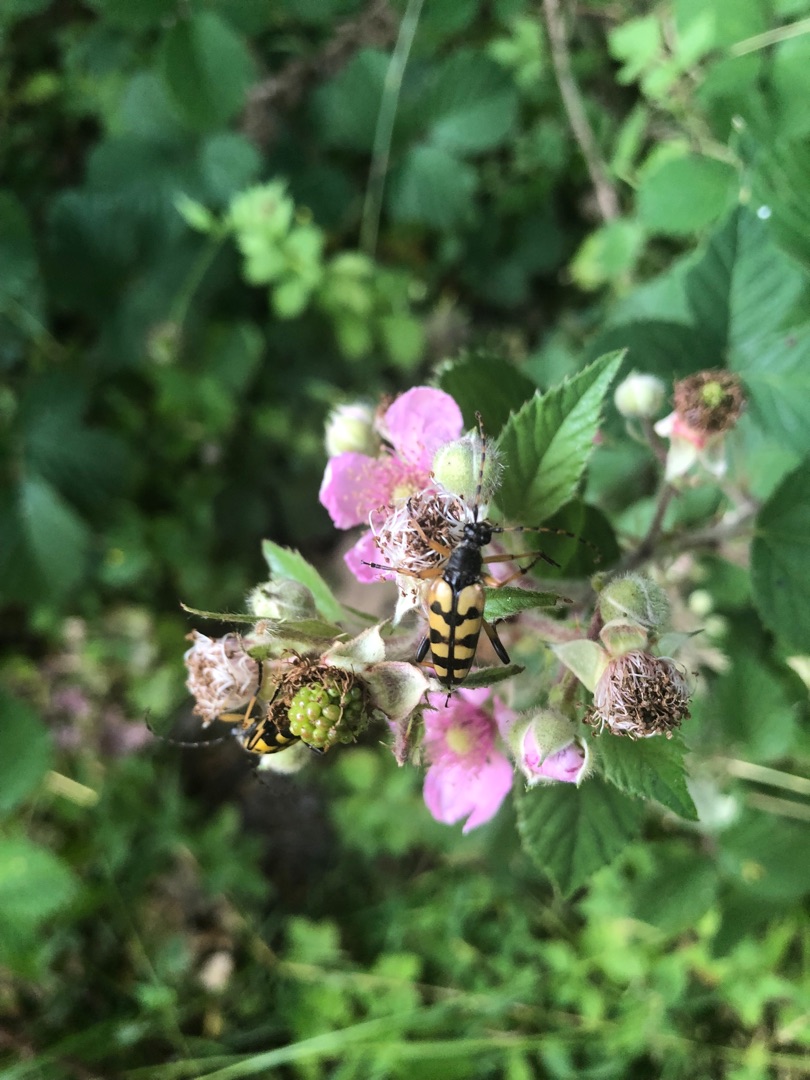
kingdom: Animalia
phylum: Arthropoda
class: Insecta
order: Coleoptera
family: Cerambycidae
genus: Rutpela
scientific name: Rutpela maculata
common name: Sydlig blomsterbuk
